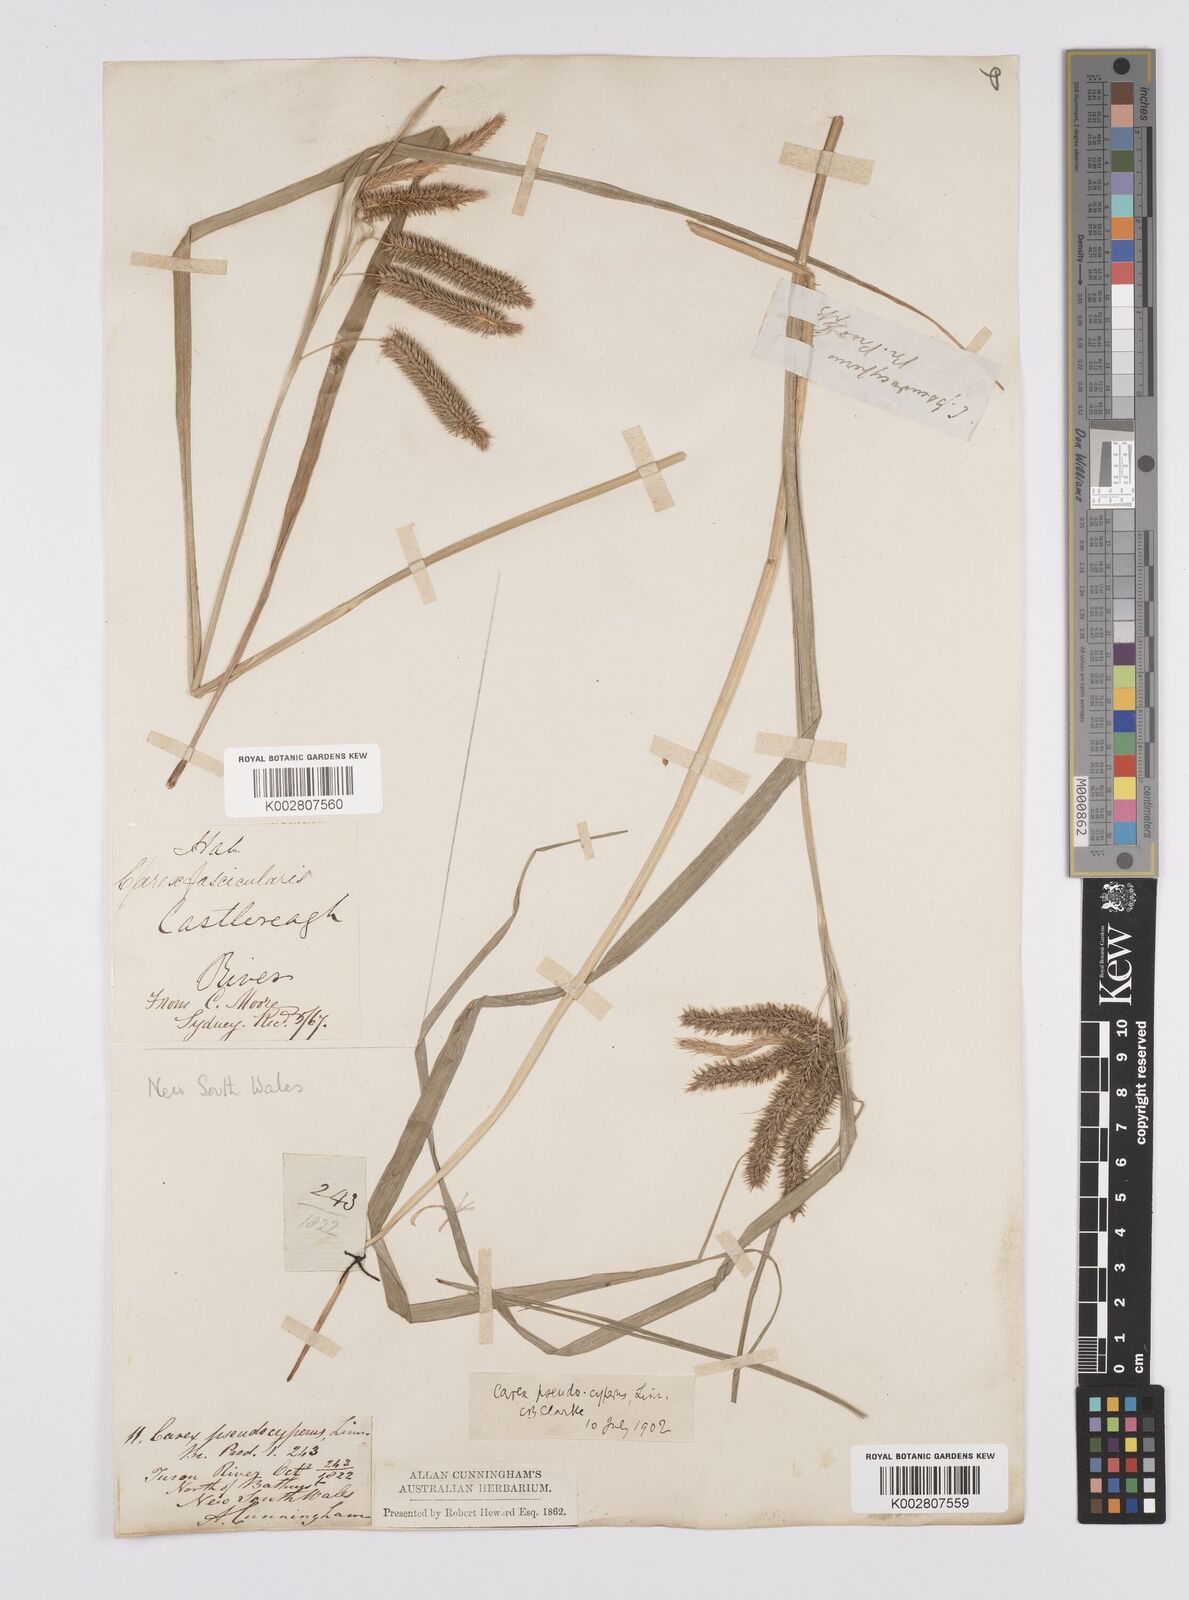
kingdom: Plantae
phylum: Tracheophyta
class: Liliopsida
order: Poales
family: Cyperaceae
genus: Carex
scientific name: Carex fascicularis
